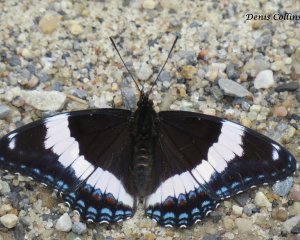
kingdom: Animalia
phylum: Arthropoda
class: Insecta
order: Lepidoptera
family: Nymphalidae
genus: Limenitis
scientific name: Limenitis arthemis
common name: Red-spotted Admiral
